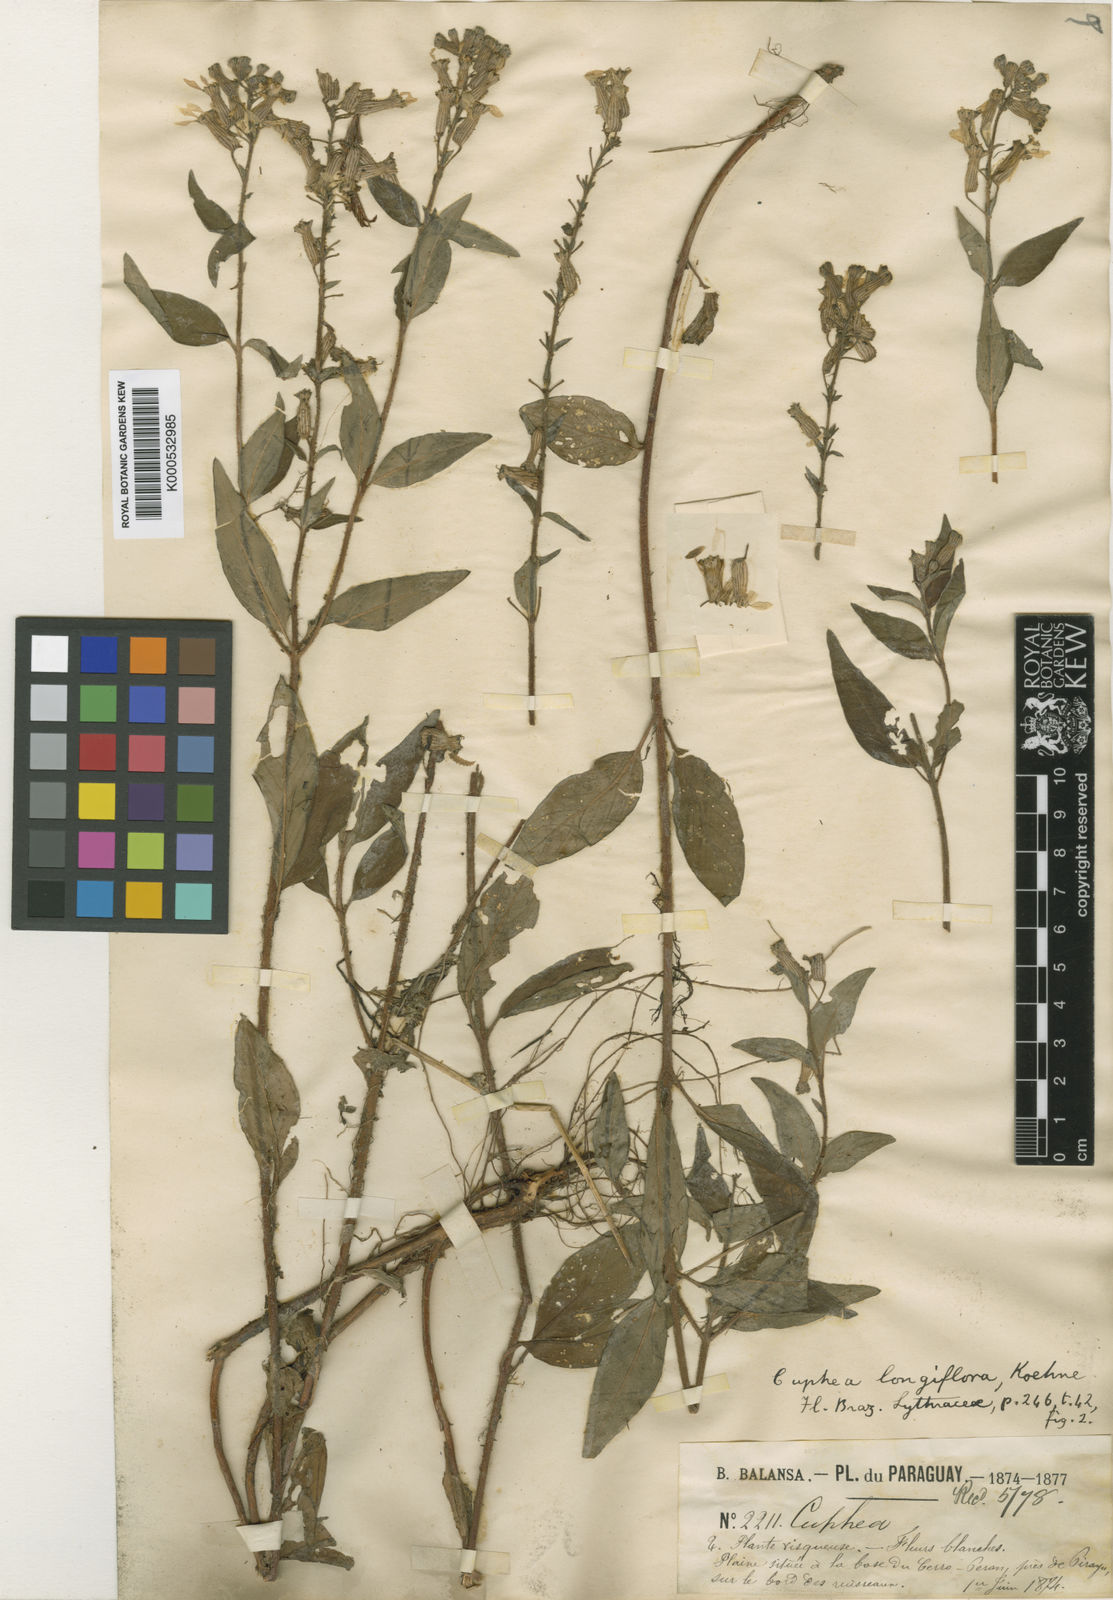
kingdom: Plantae
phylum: Tracheophyta
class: Magnoliopsida
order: Myrtales
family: Lythraceae
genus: Cuphea
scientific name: Cuphea racemosa
